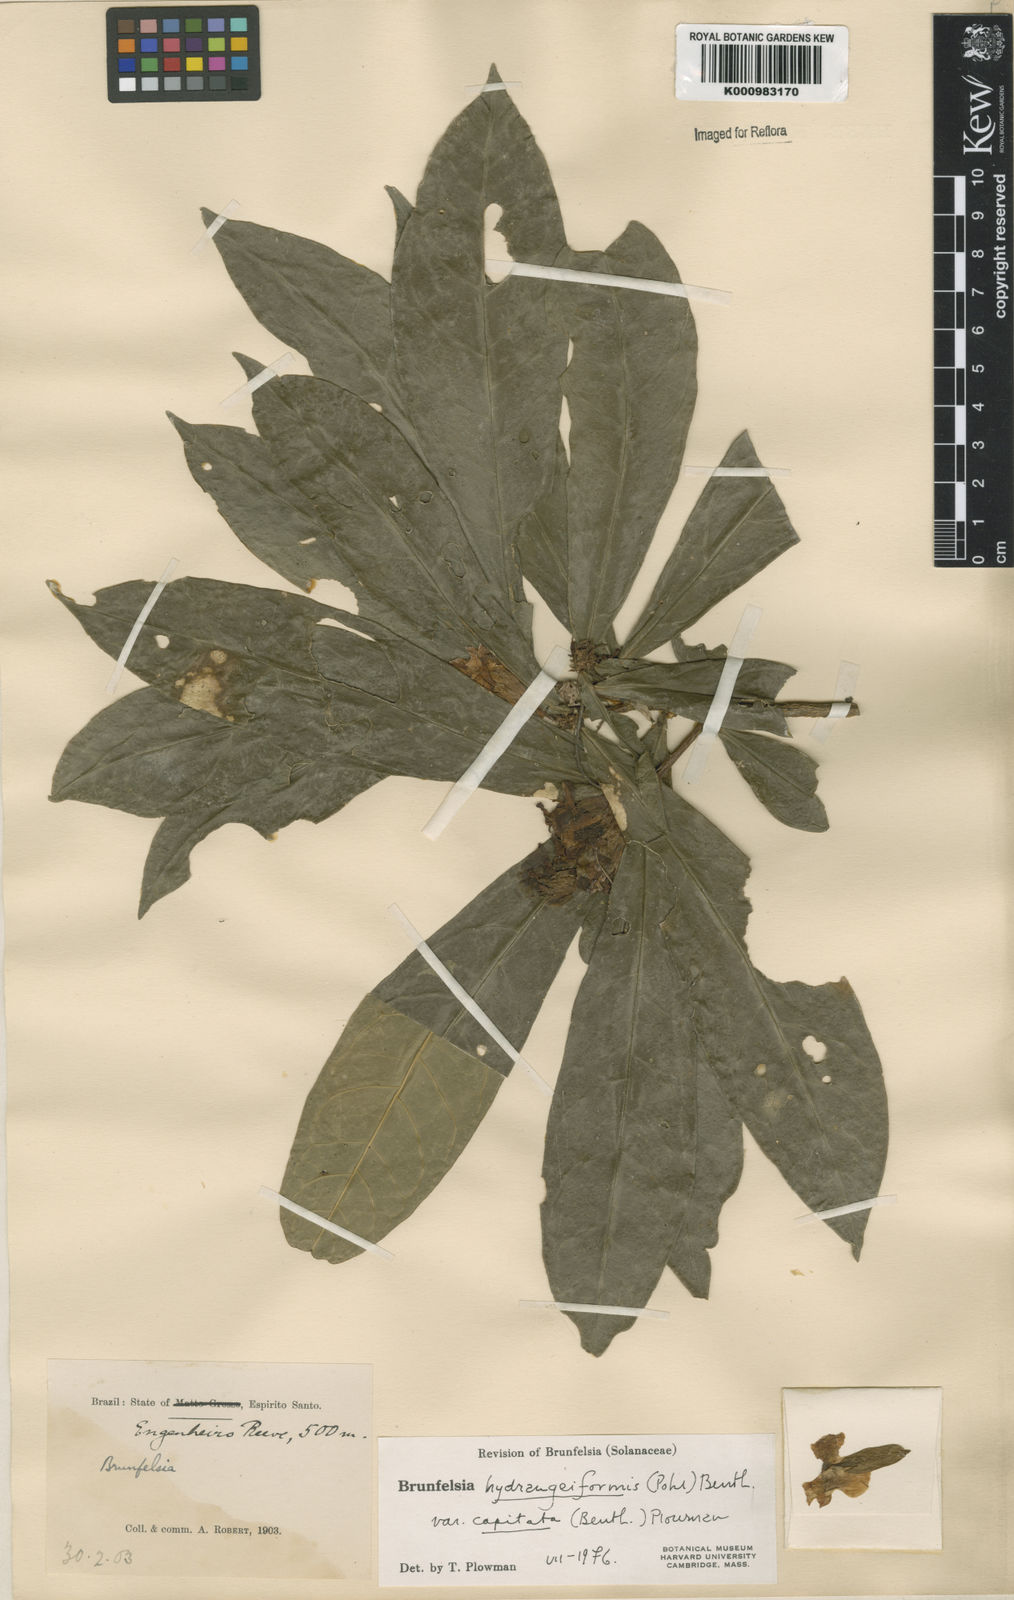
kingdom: Plantae
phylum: Tracheophyta
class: Magnoliopsida
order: Solanales
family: Solanaceae
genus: Solanum
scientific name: Solanum
